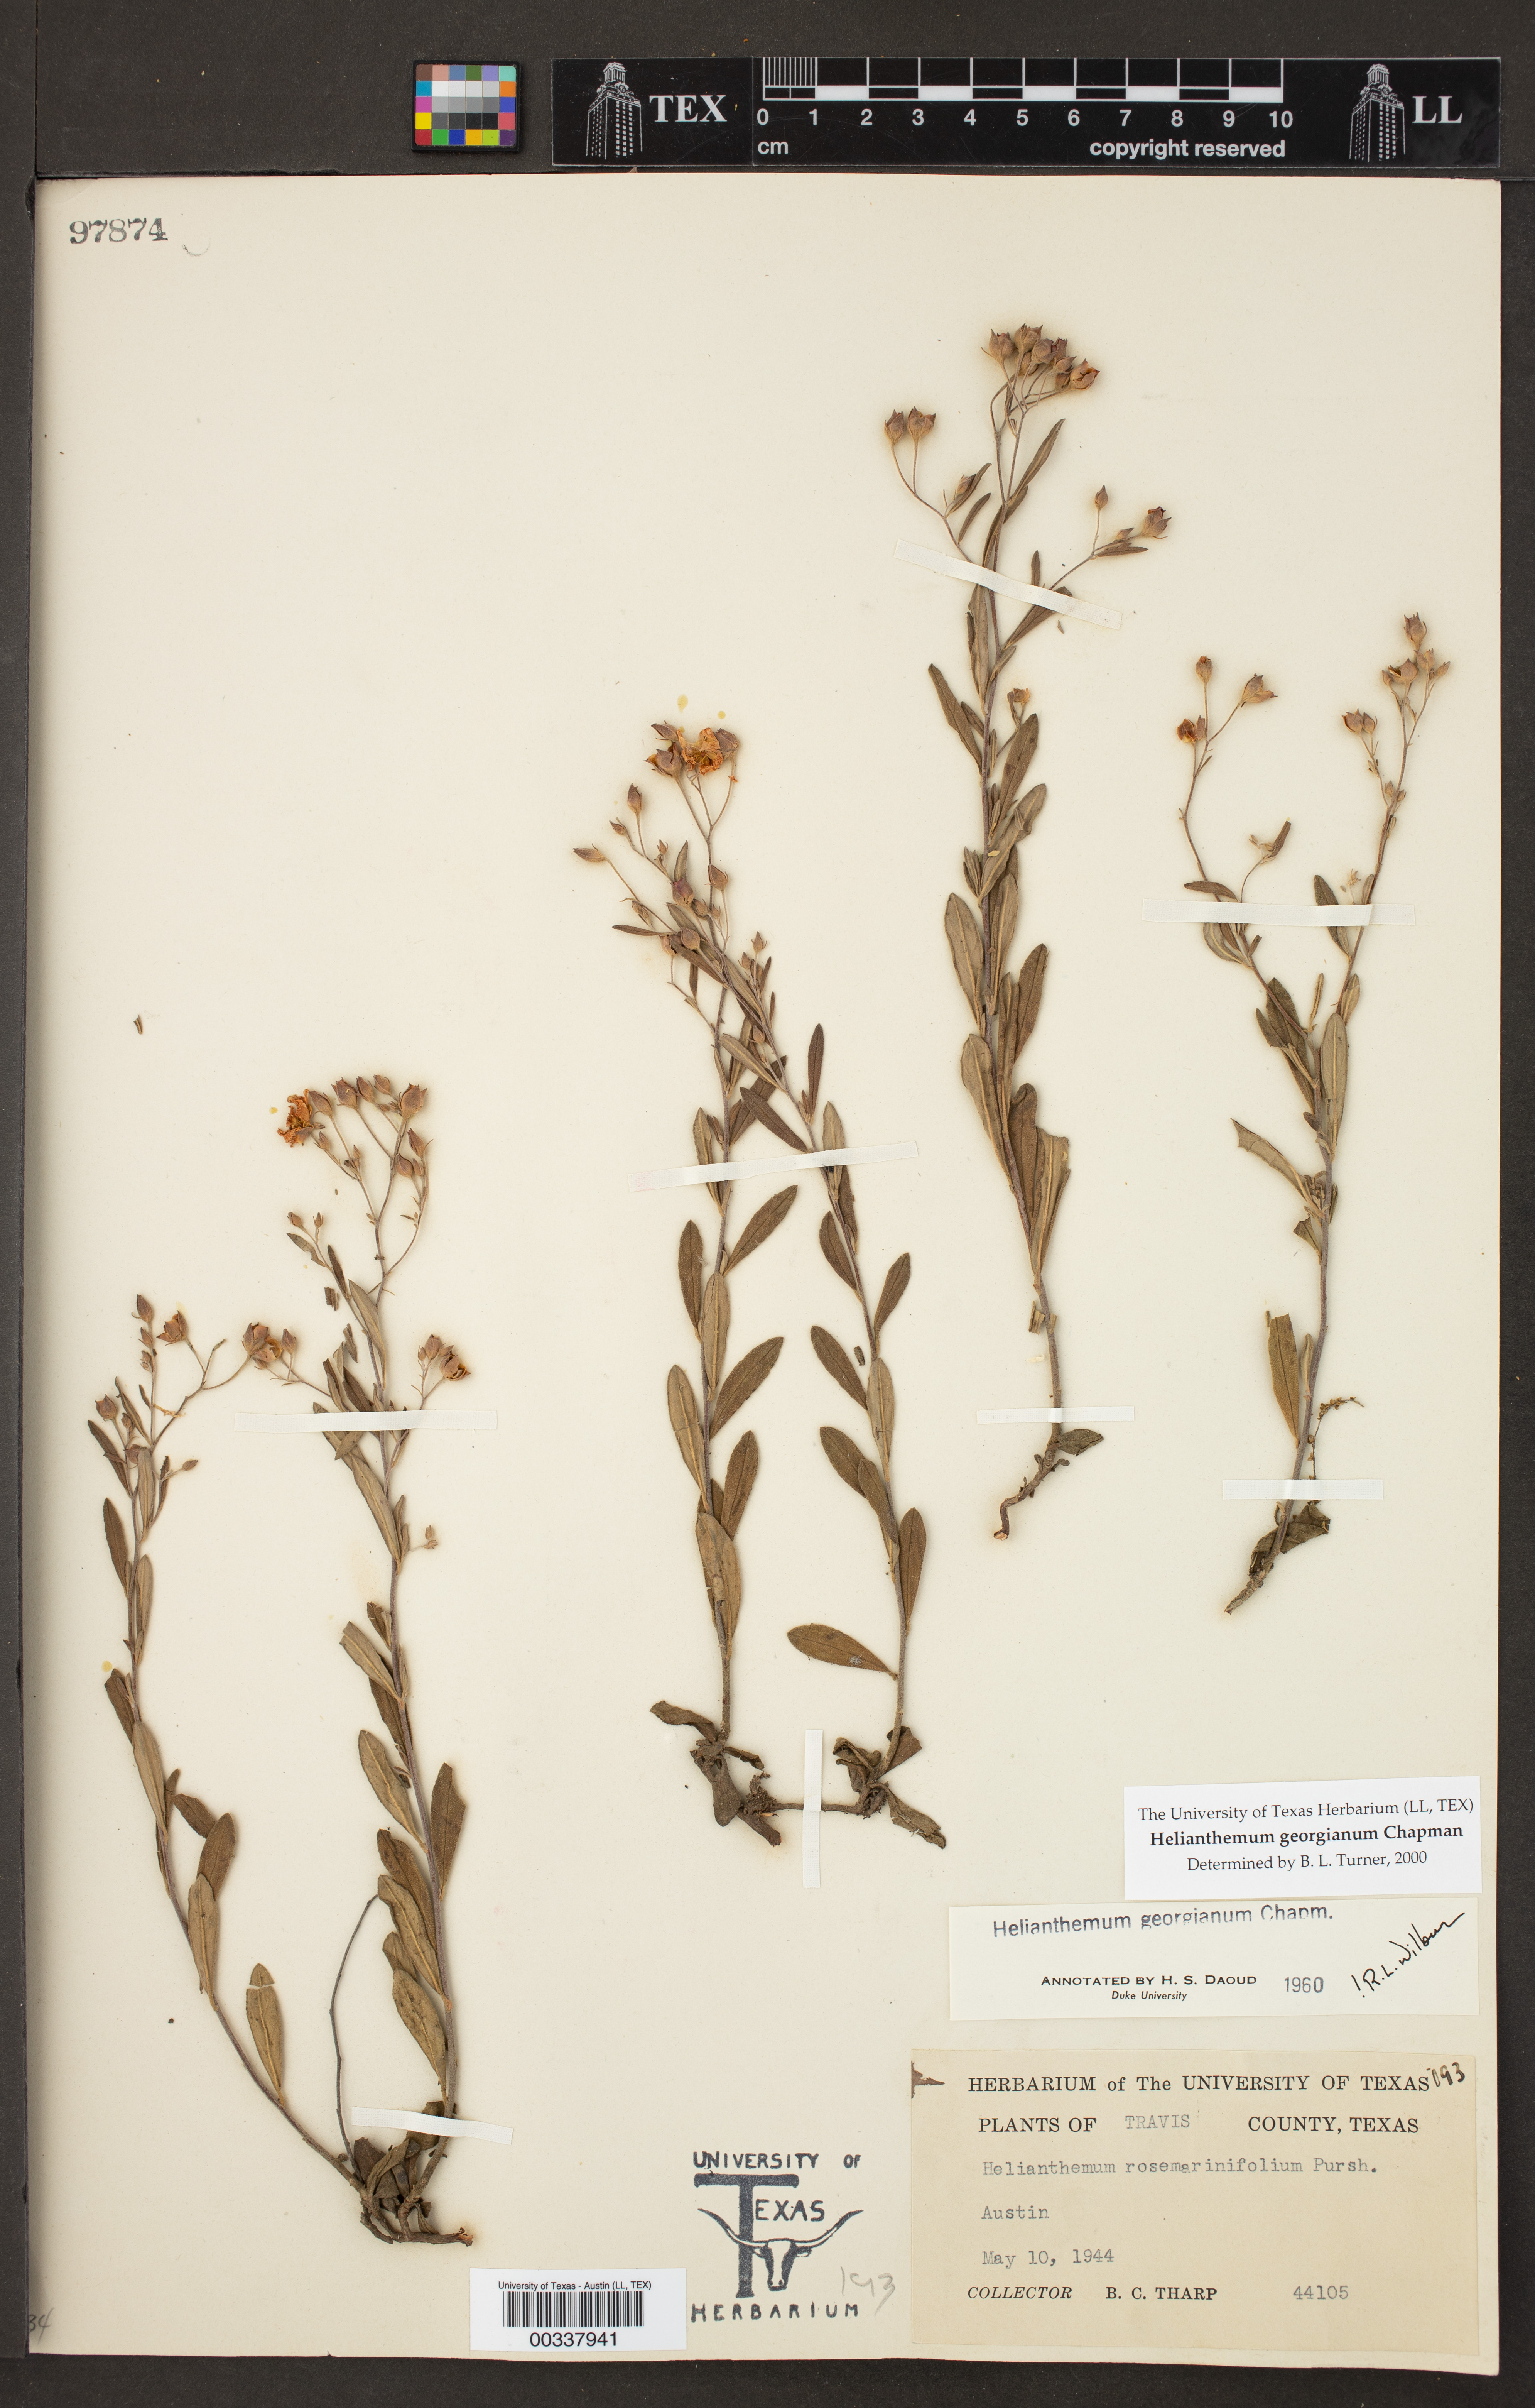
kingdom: Plantae
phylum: Tracheophyta
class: Magnoliopsida
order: Malvales
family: Cistaceae
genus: Crocanthemum
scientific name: Crocanthemum georgianum
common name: Georgia frostweed
